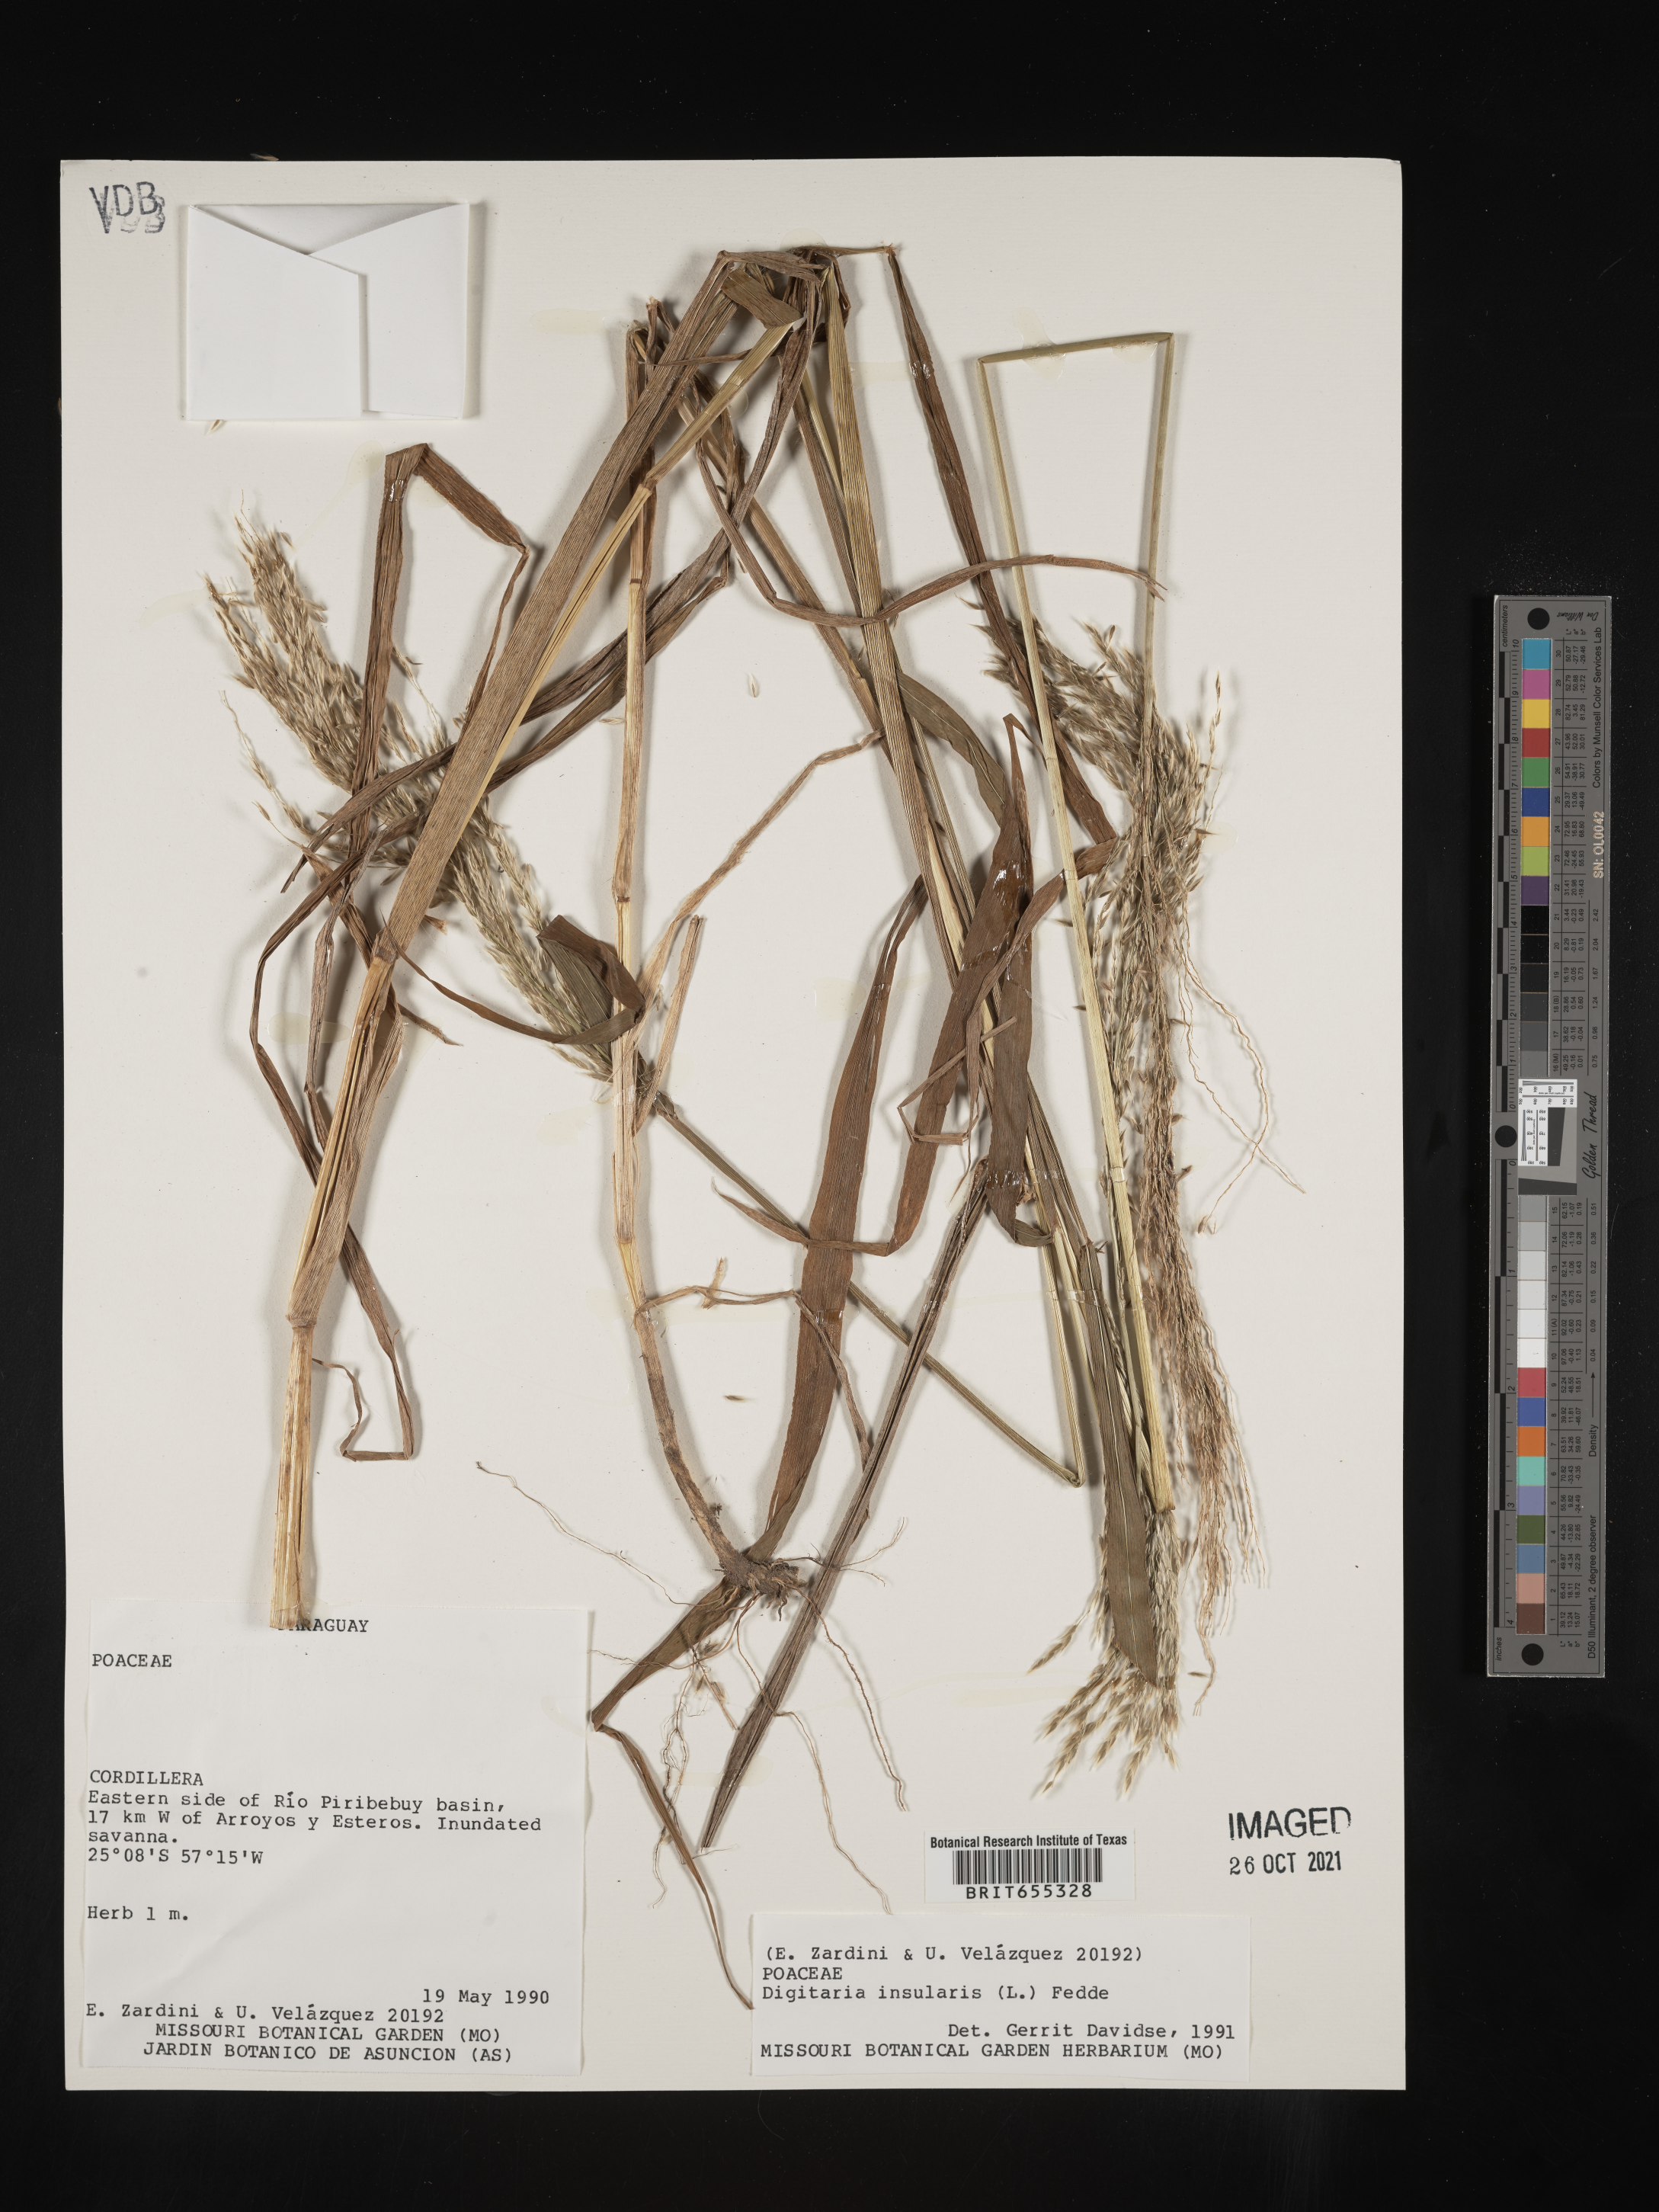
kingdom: Plantae
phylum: Tracheophyta
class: Liliopsida
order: Poales
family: Poaceae
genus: Digitaria
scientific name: Digitaria
